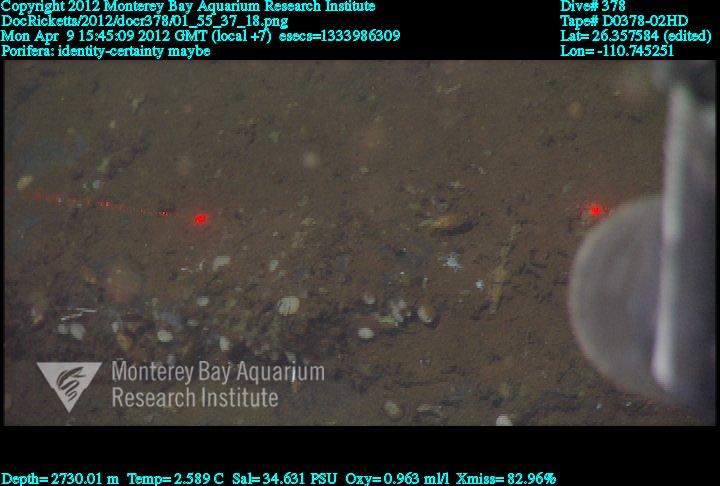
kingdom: Animalia
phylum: Porifera
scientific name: Porifera
